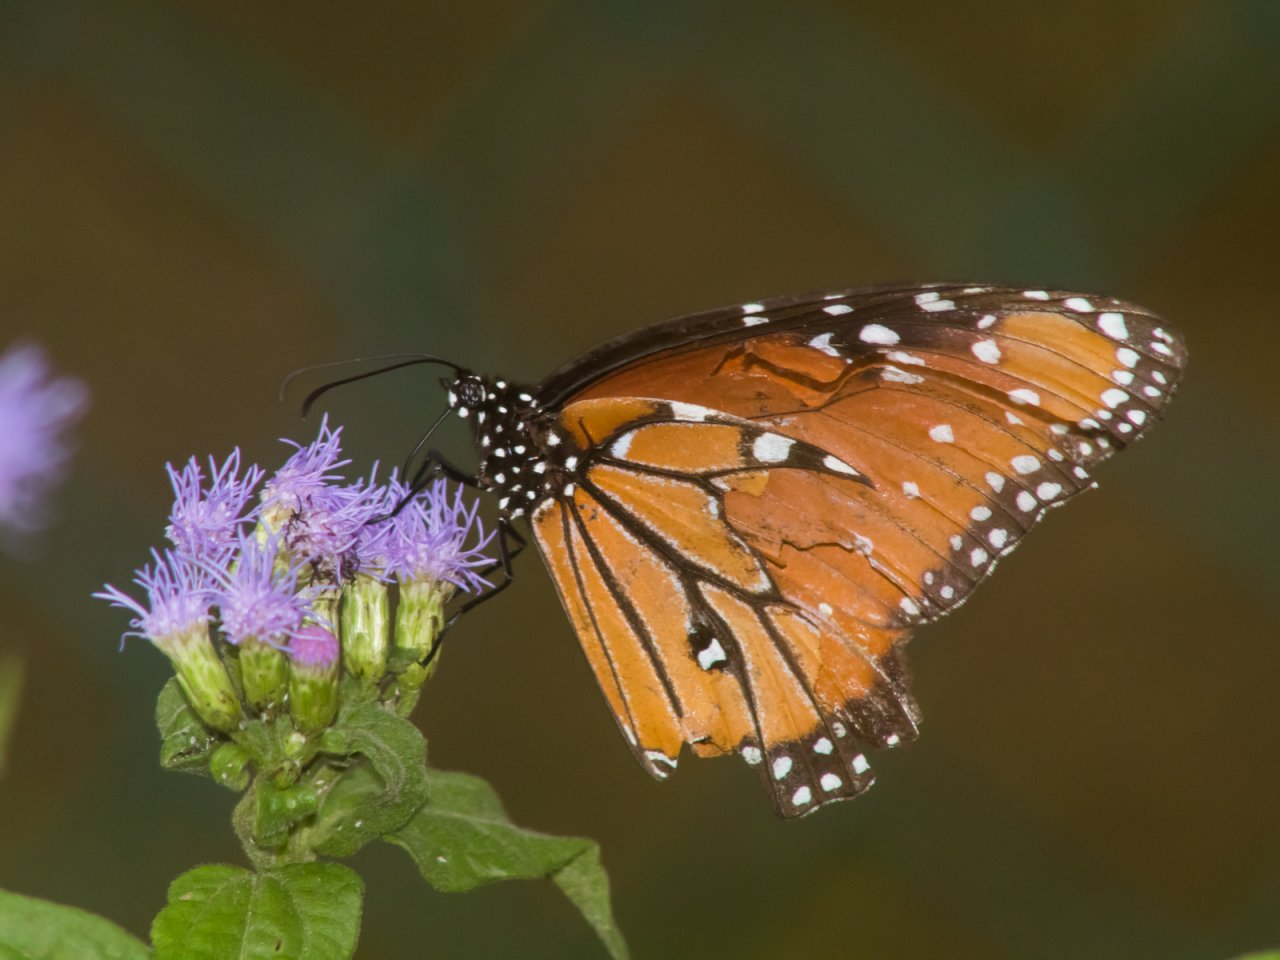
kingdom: Animalia
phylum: Arthropoda
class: Insecta
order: Lepidoptera
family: Nymphalidae
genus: Danaus
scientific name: Danaus gilippus
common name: Queen
